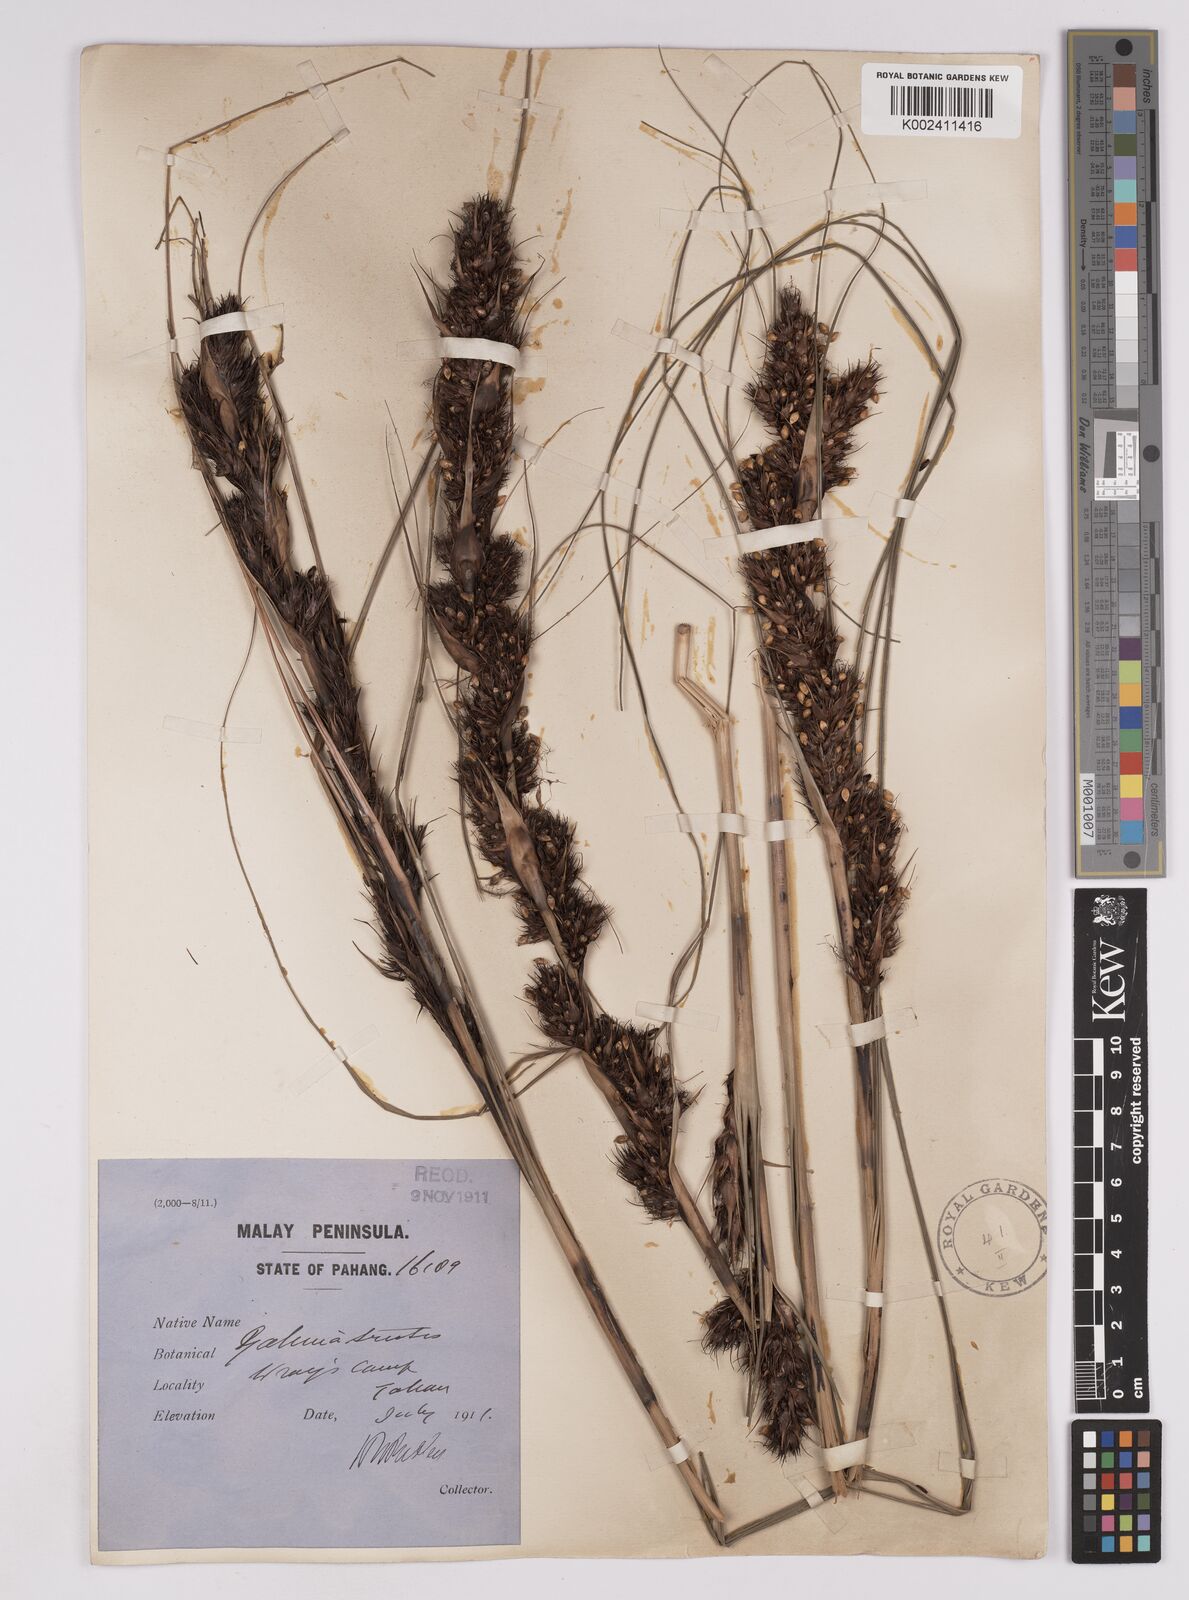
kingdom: Plantae
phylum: Tracheophyta
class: Liliopsida
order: Poales
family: Cyperaceae
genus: Gahnia
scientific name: Gahnia tristis
